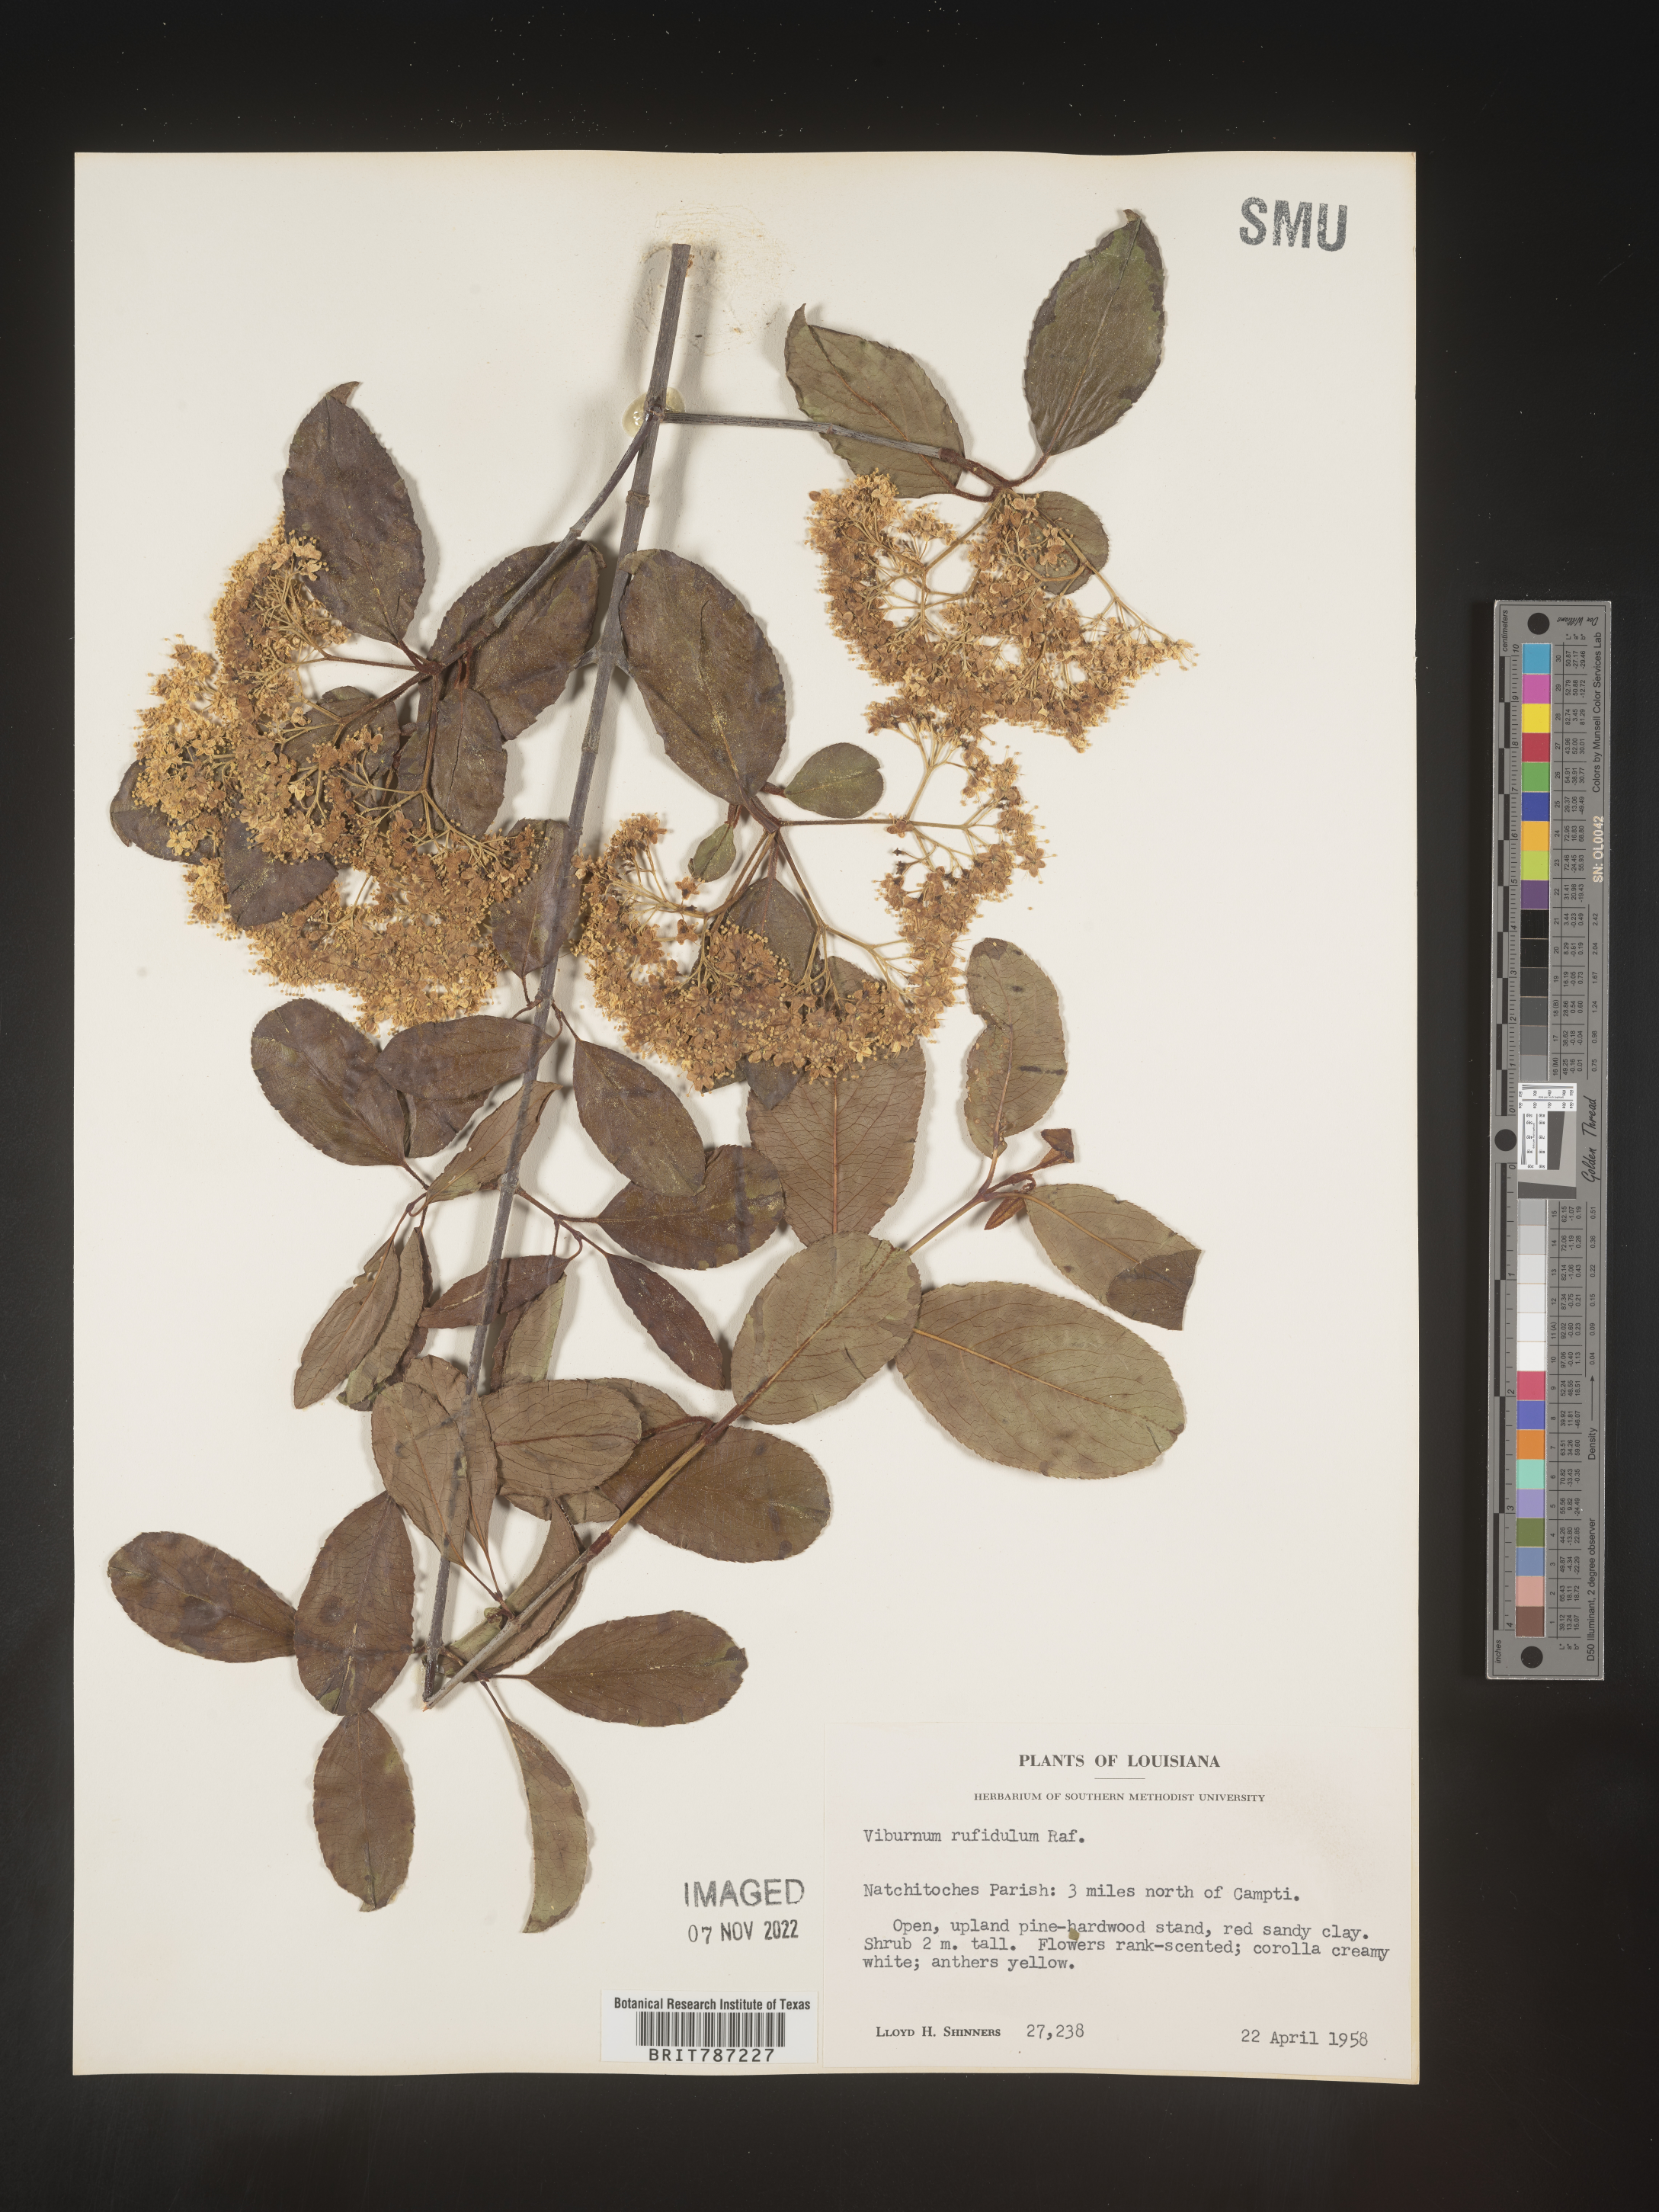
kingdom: Plantae
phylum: Tracheophyta
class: Magnoliopsida
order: Dipsacales
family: Viburnaceae
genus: Viburnum
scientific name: Viburnum rufidulum
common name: Blue haw
